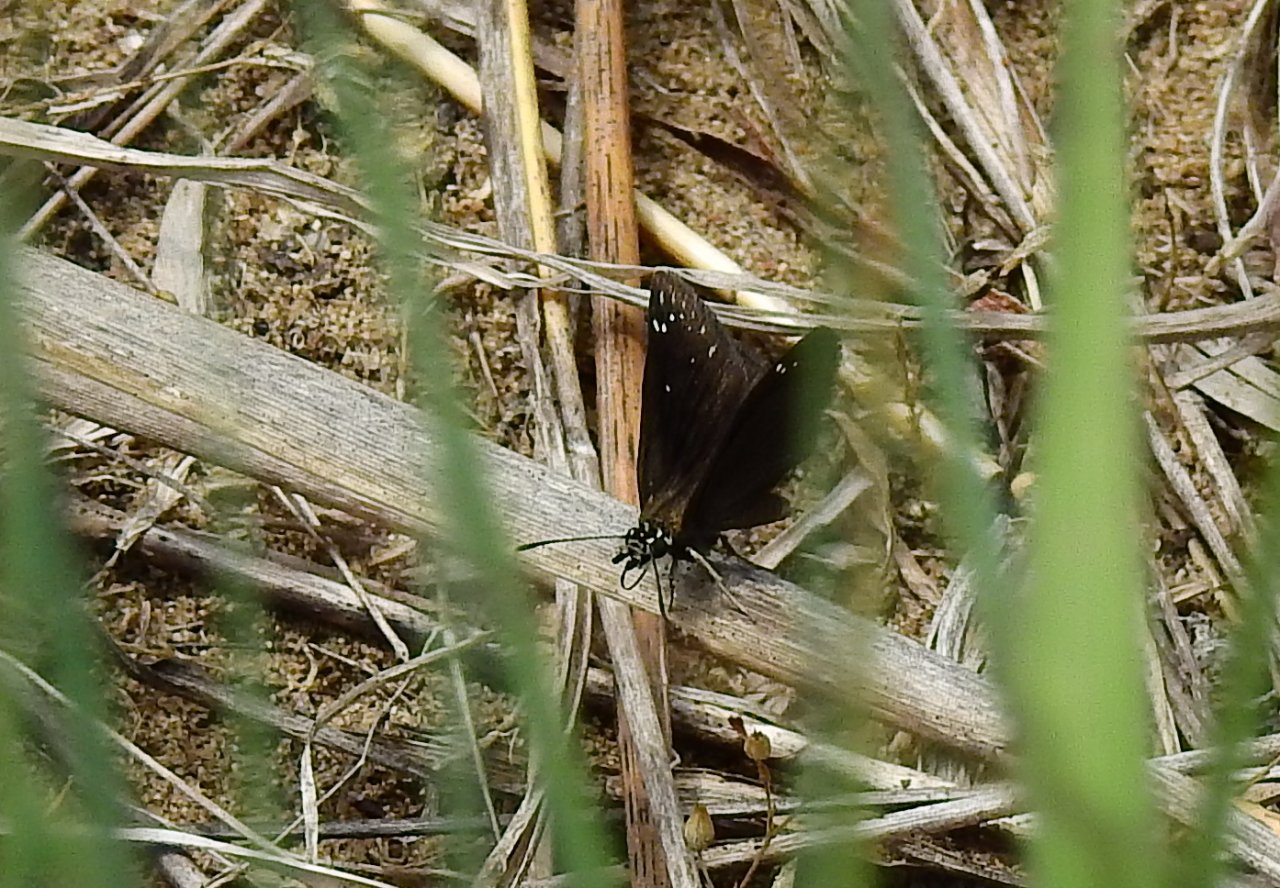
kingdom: Animalia
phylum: Arthropoda
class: Insecta
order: Lepidoptera
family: Hesperiidae
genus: Pholisora
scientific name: Pholisora catullus
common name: Common Sootywing
